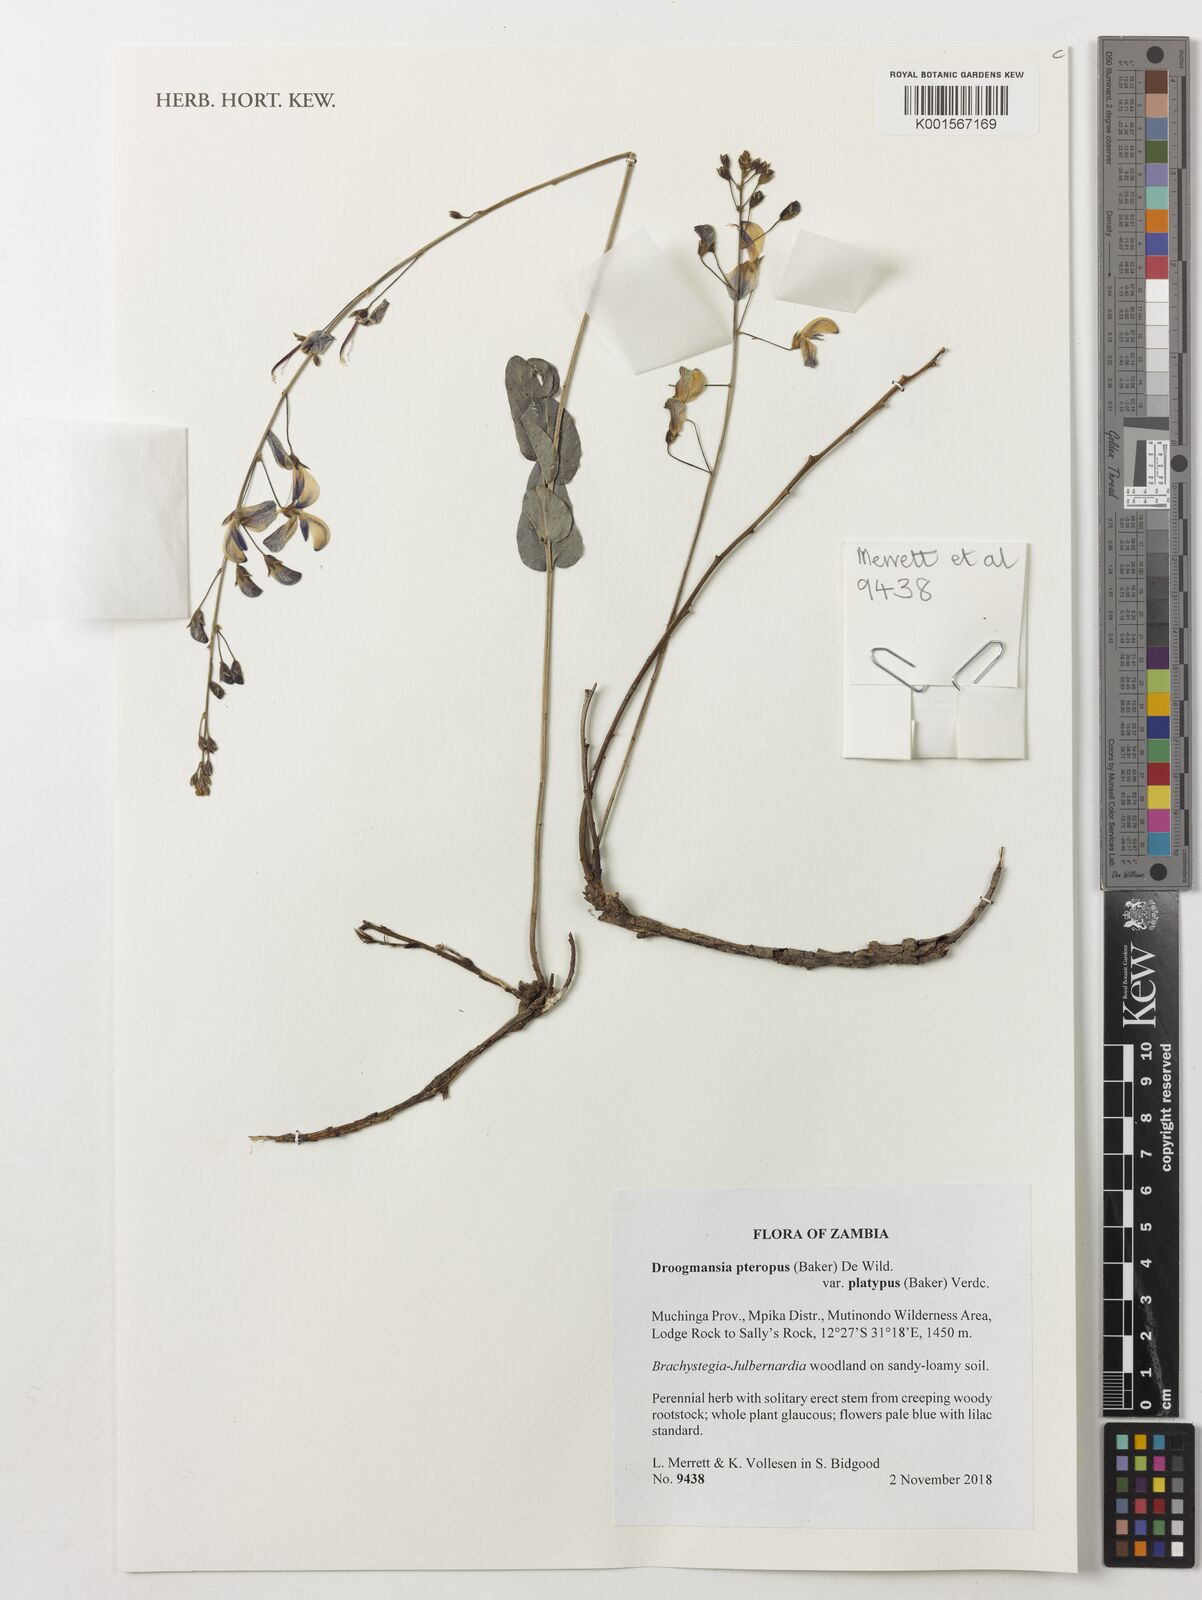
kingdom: Plantae
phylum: Tracheophyta
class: Magnoliopsida
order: Fabales
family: Fabaceae
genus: Droogmansia
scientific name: Droogmansia pteropus
